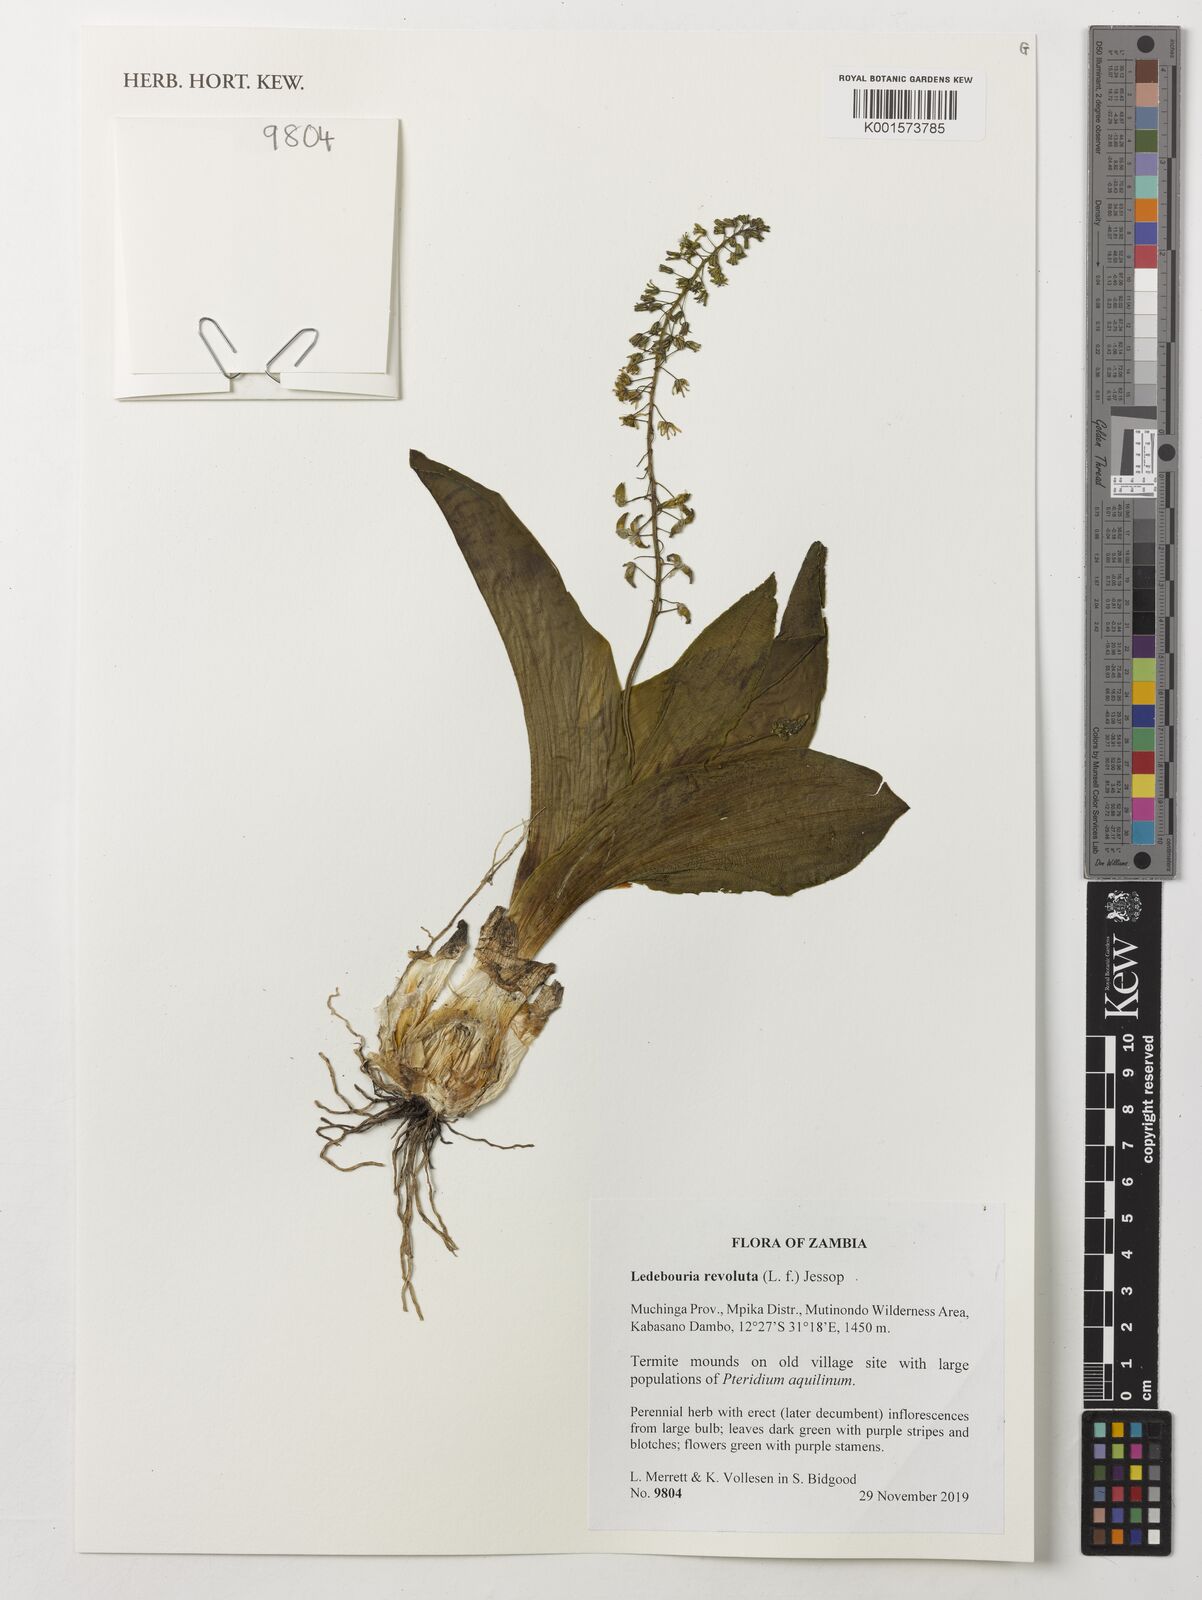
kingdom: Plantae
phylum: Tracheophyta
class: Liliopsida
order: Asparagales
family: Asparagaceae
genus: Ledebouria
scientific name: Ledebouria revoluta
